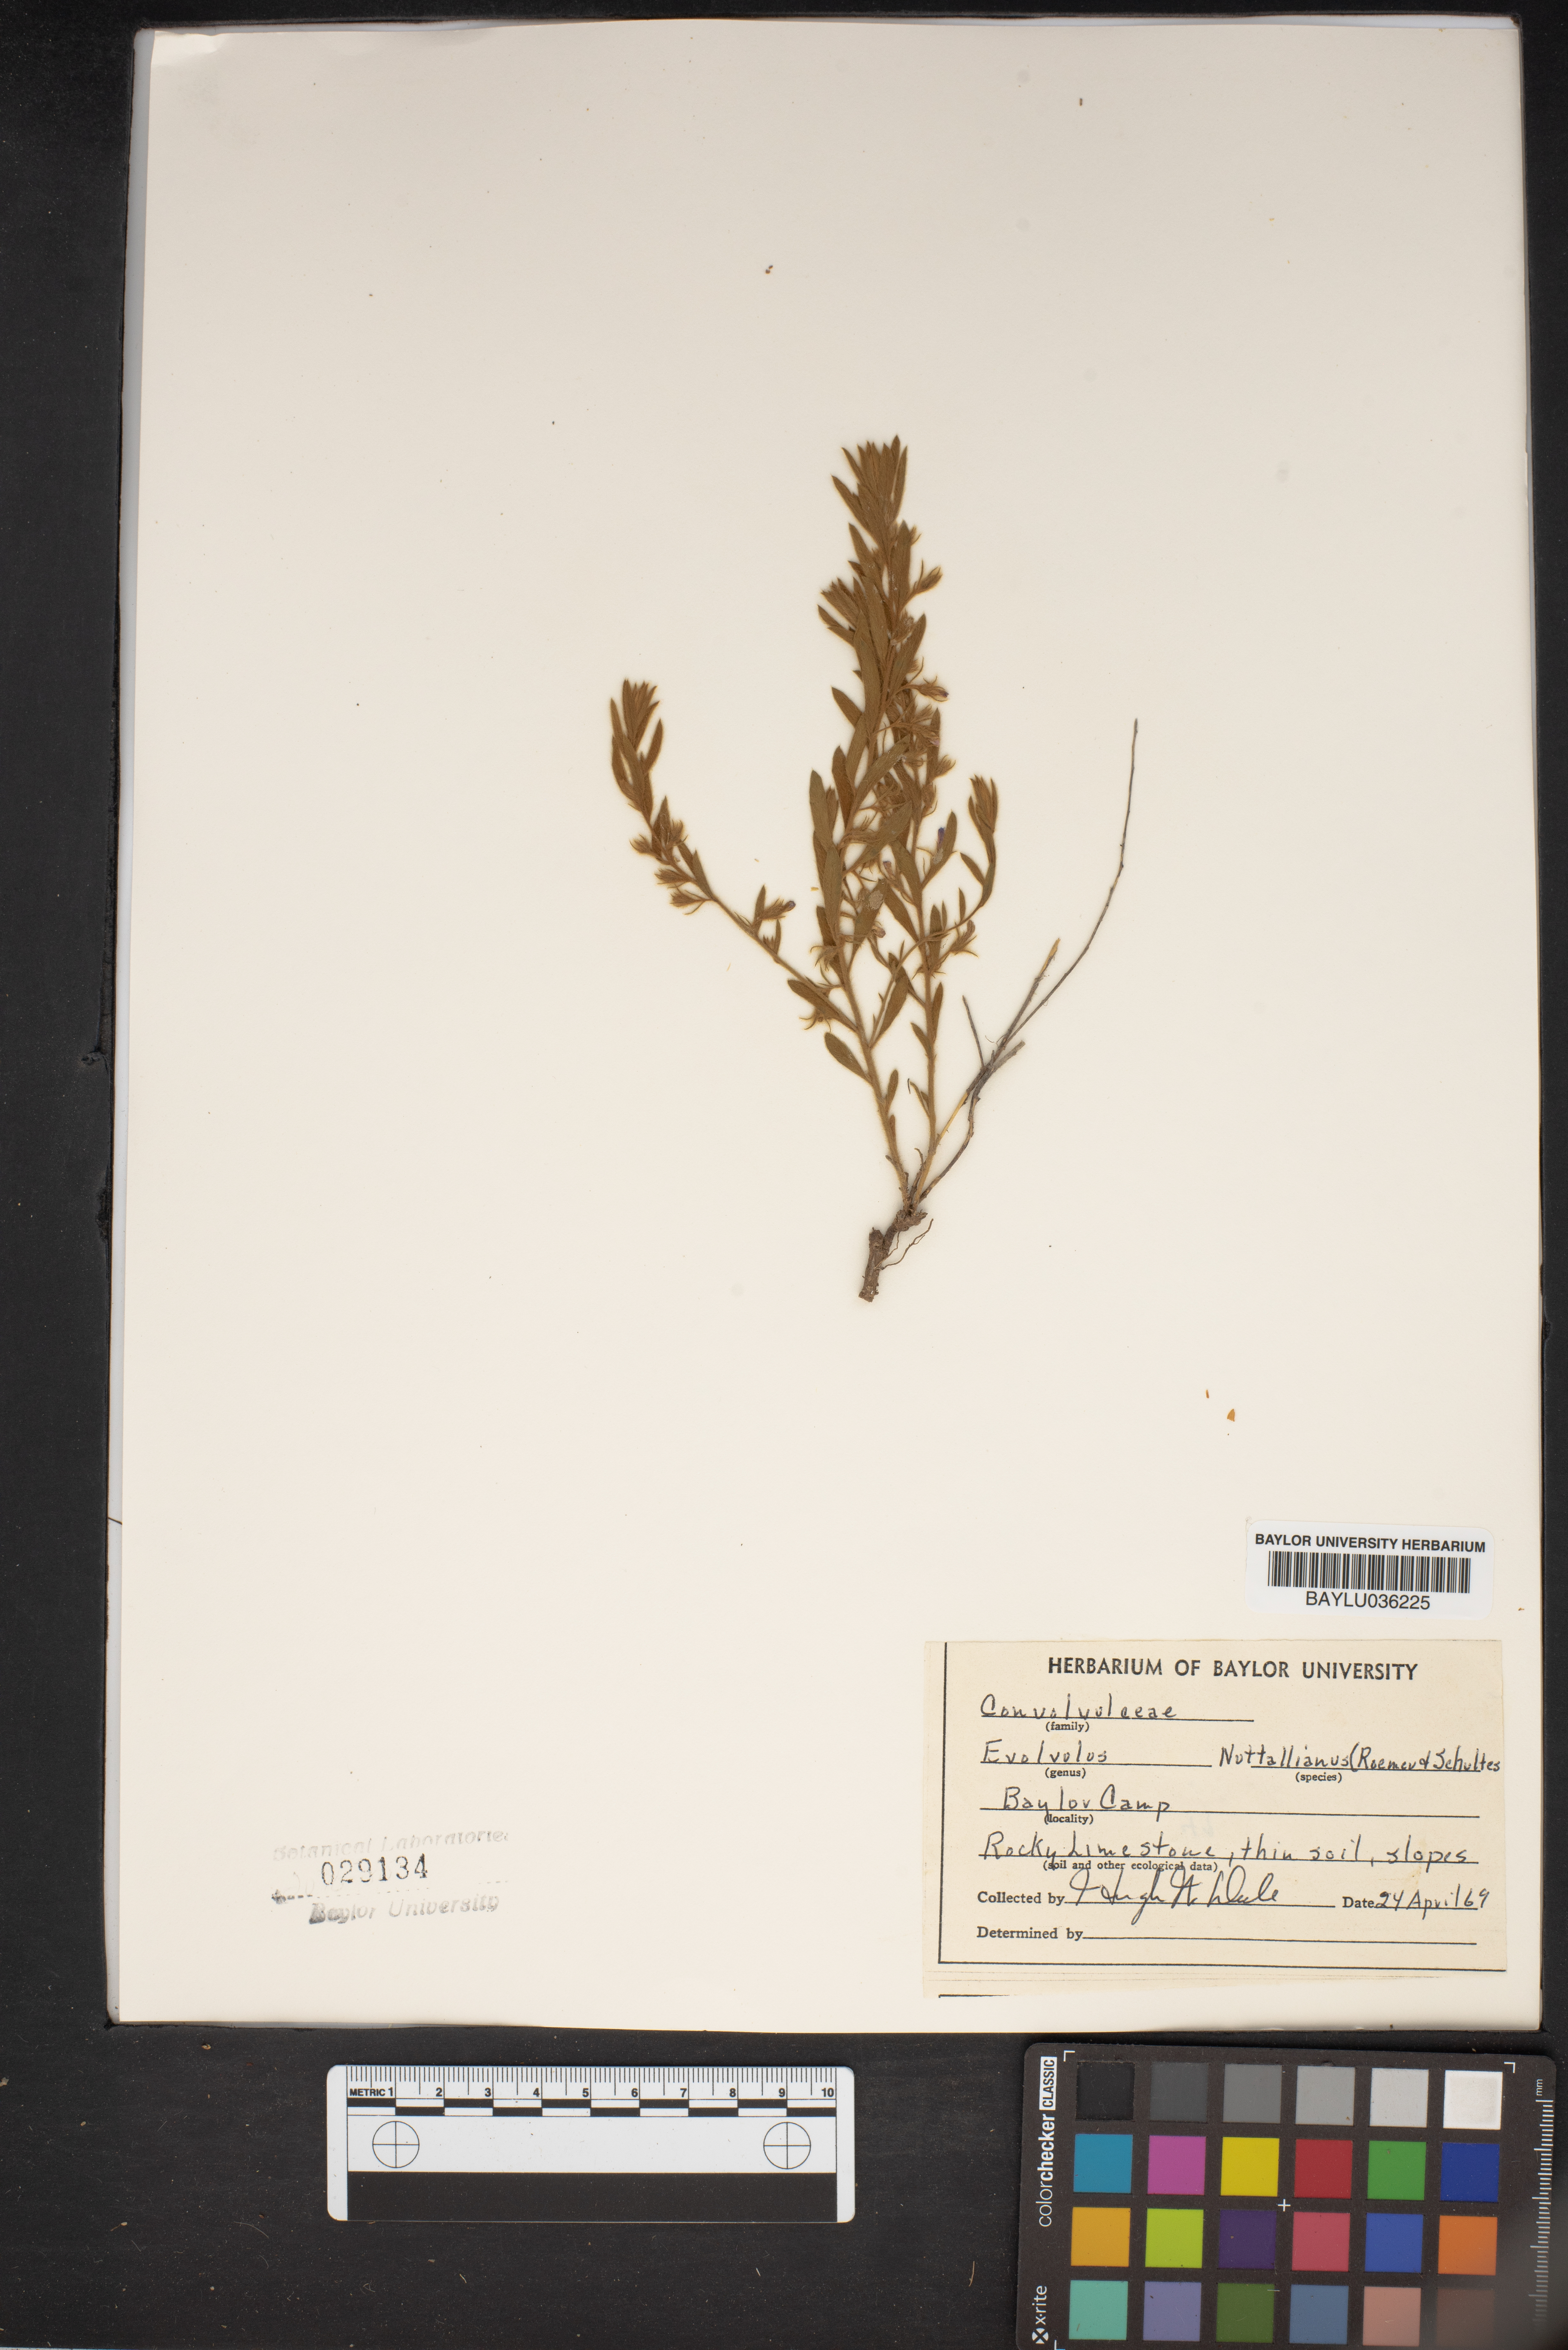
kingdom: Plantae
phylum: Tracheophyta
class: Magnoliopsida
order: Solanales
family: Convolvulaceae
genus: Evolvulus
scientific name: Evolvulus nuttallianus
